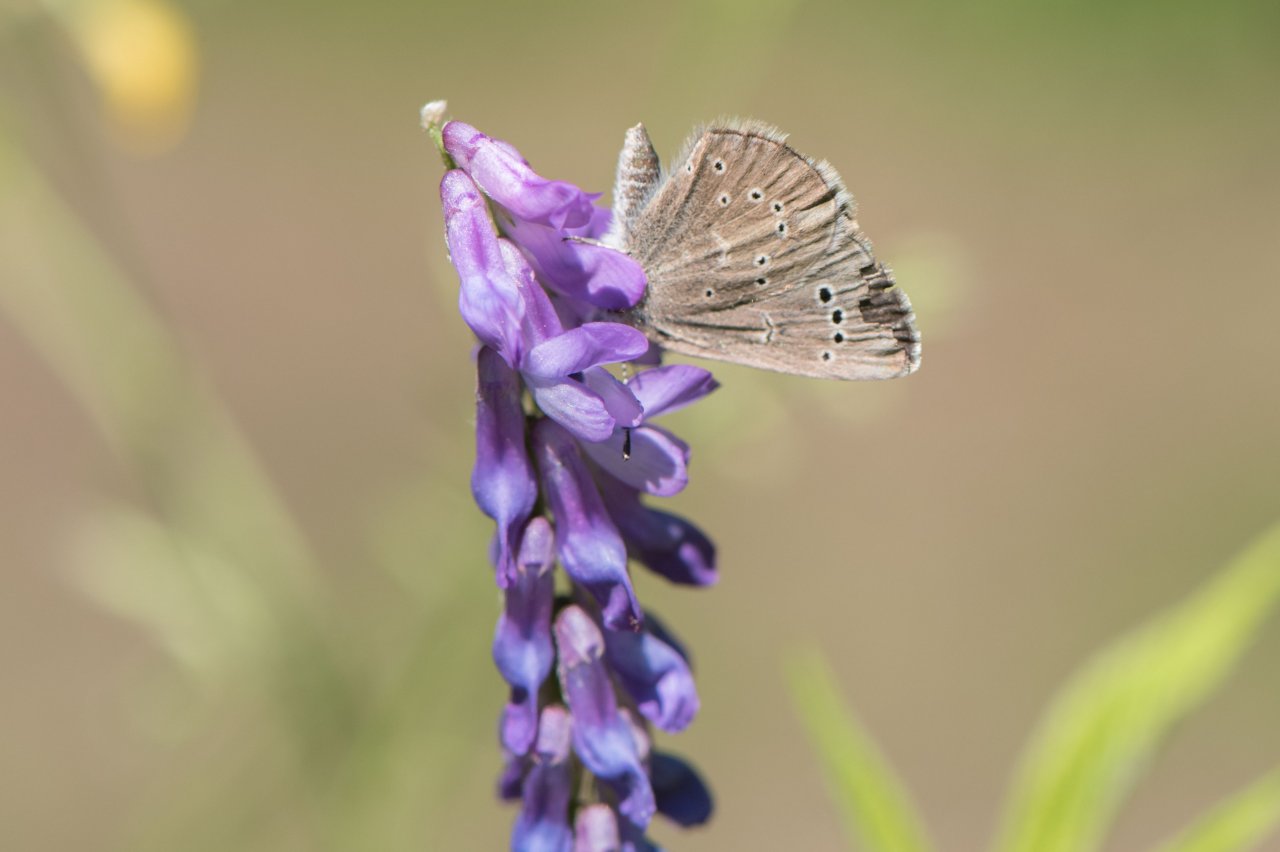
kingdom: Animalia
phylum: Arthropoda
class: Insecta
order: Lepidoptera
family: Lycaenidae
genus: Glaucopsyche
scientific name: Glaucopsyche lygdamus
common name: Silvery Blue
